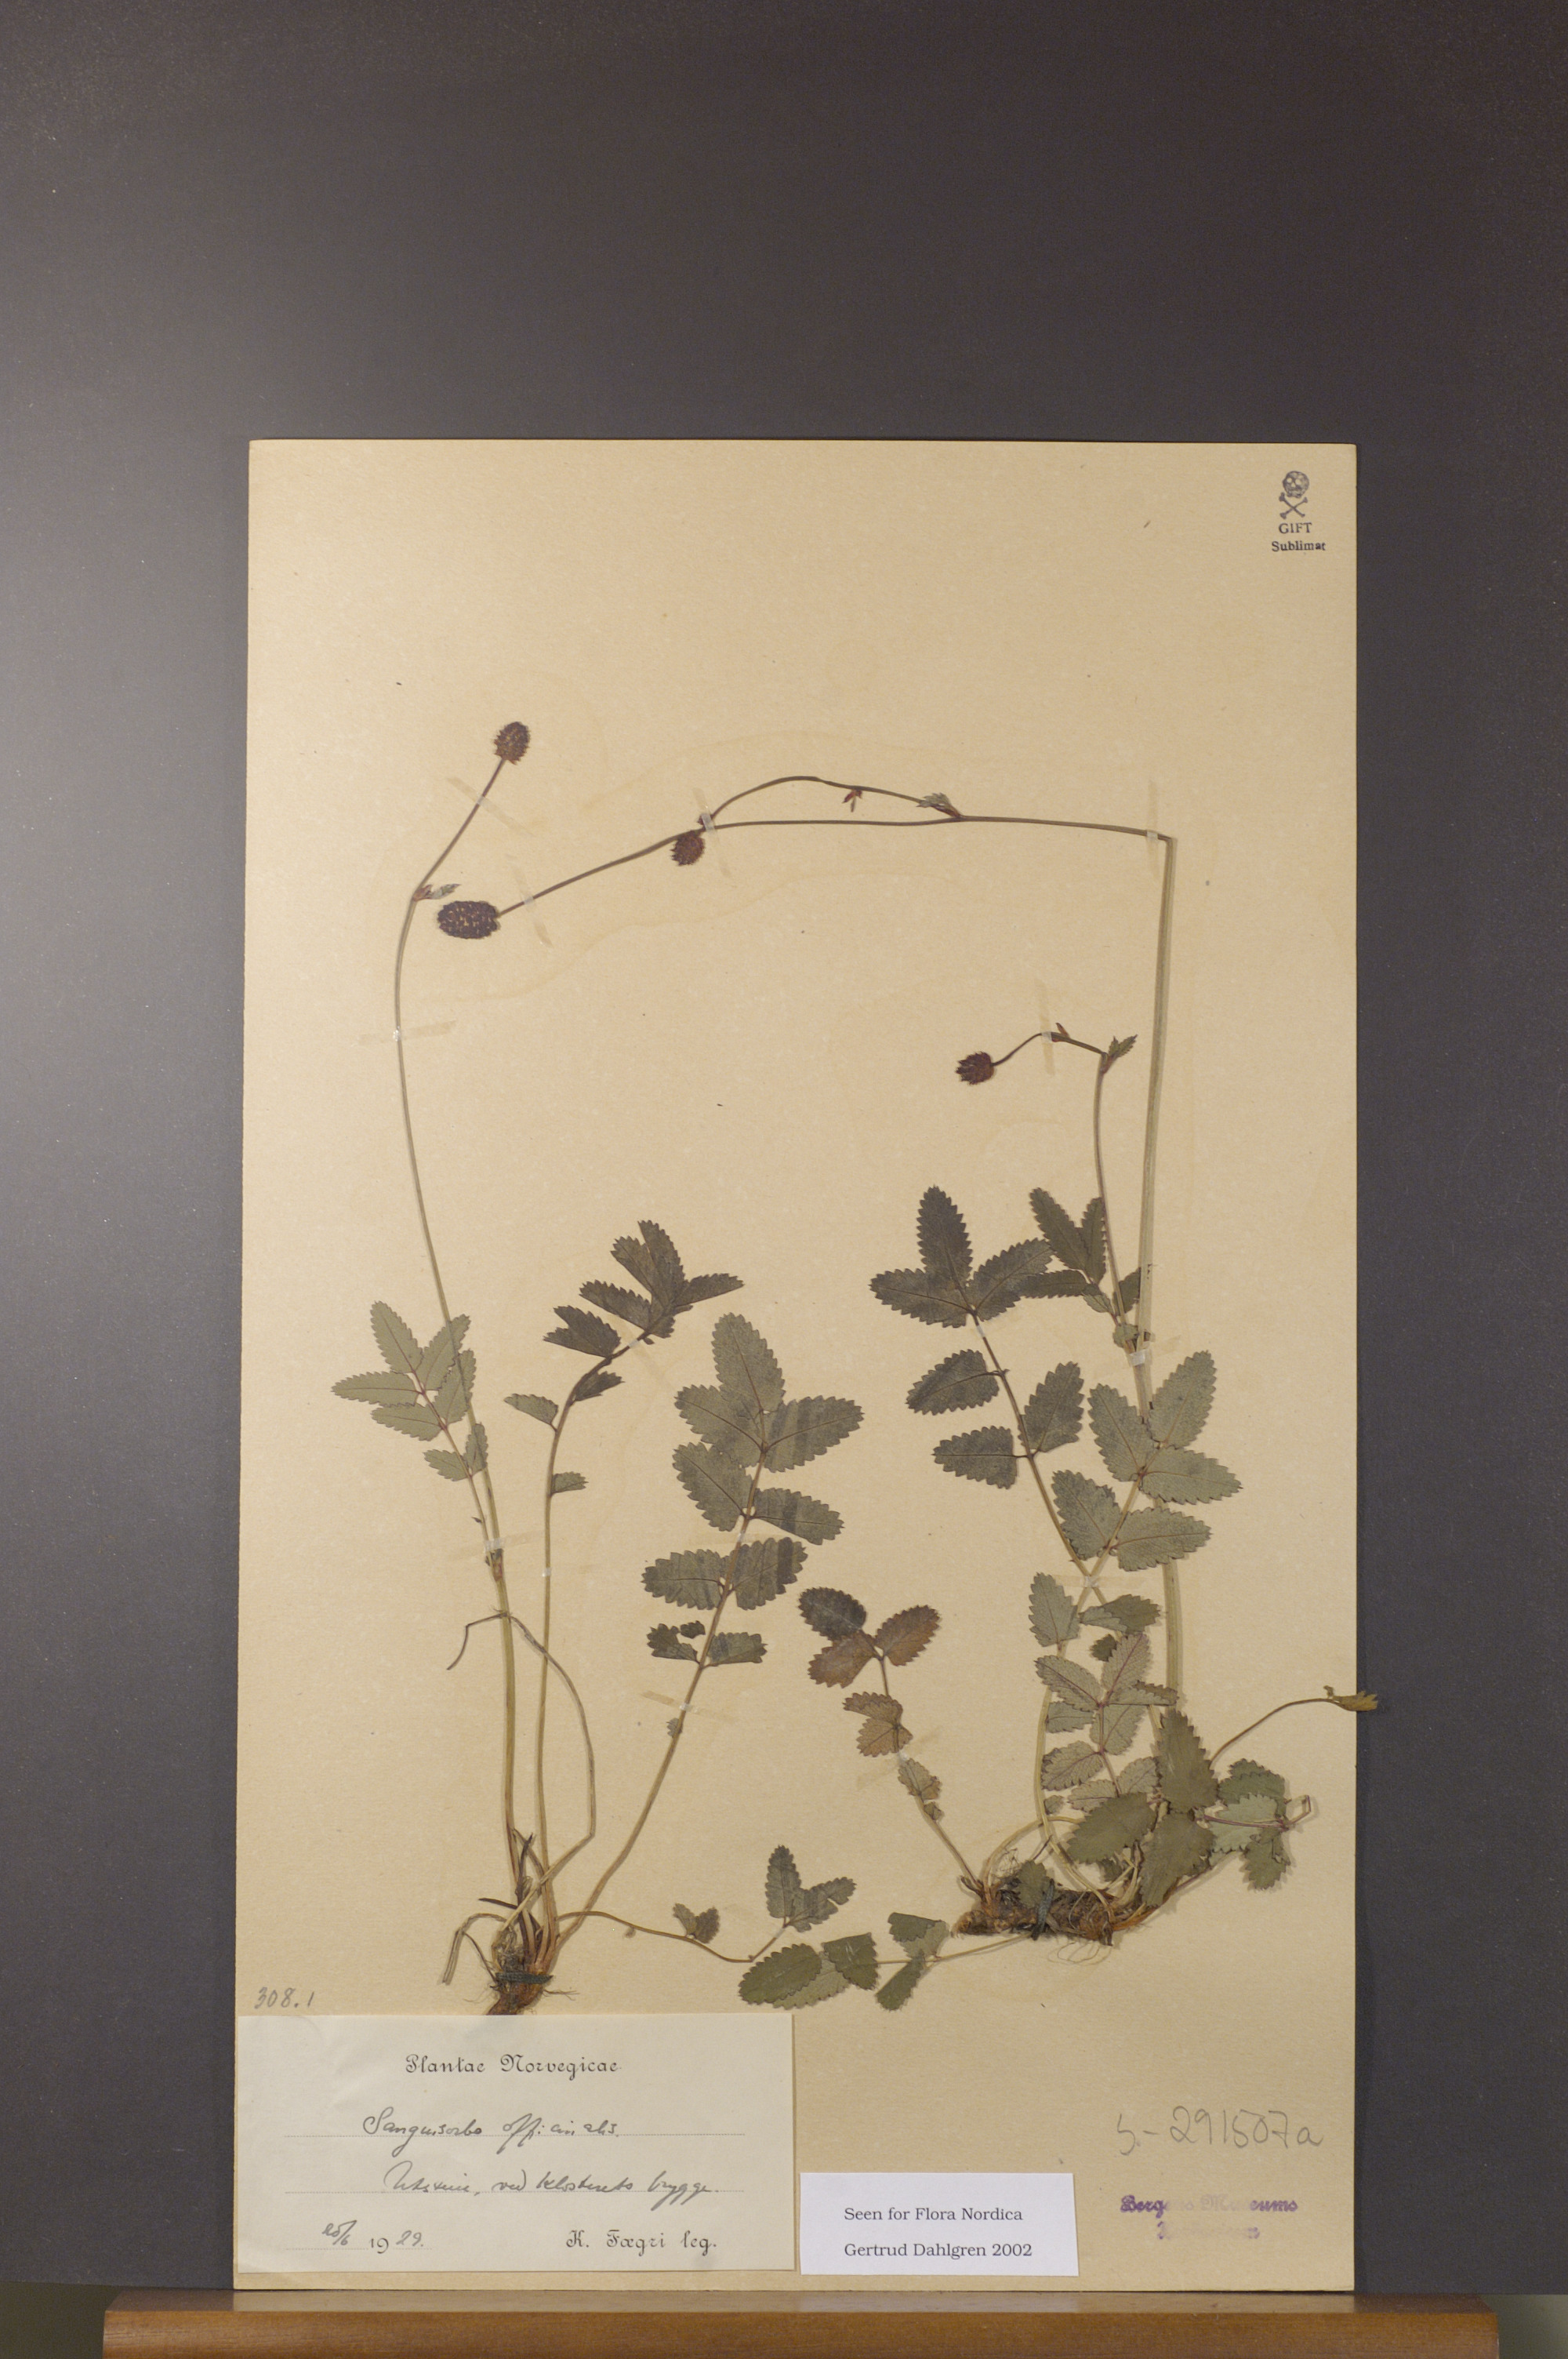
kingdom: Plantae
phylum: Tracheophyta
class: Magnoliopsida
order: Rosales
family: Rosaceae
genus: Sanguisorba
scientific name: Sanguisorba officinalis
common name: Great burnet
